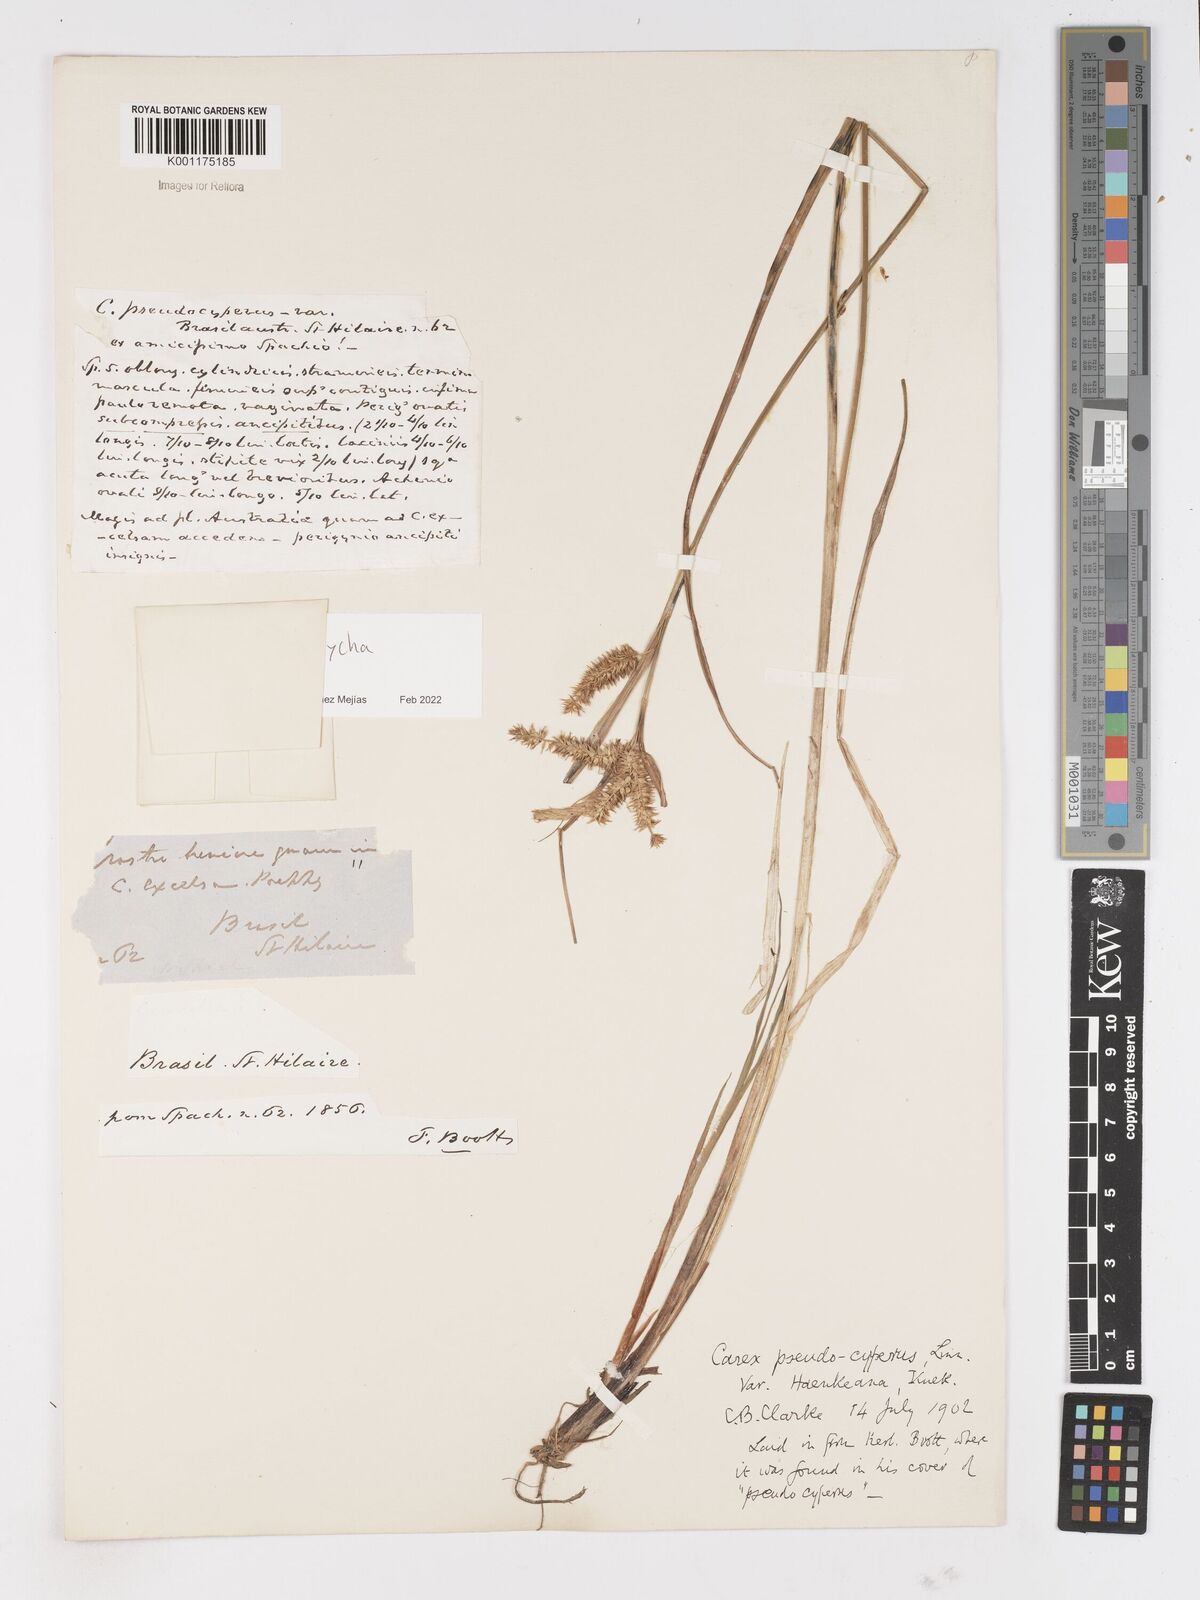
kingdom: Plantae
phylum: Tracheophyta
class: Liliopsida
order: Poales
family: Cyperaceae
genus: Carex
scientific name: Carex pseudocyperus
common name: Cyperus sedge
